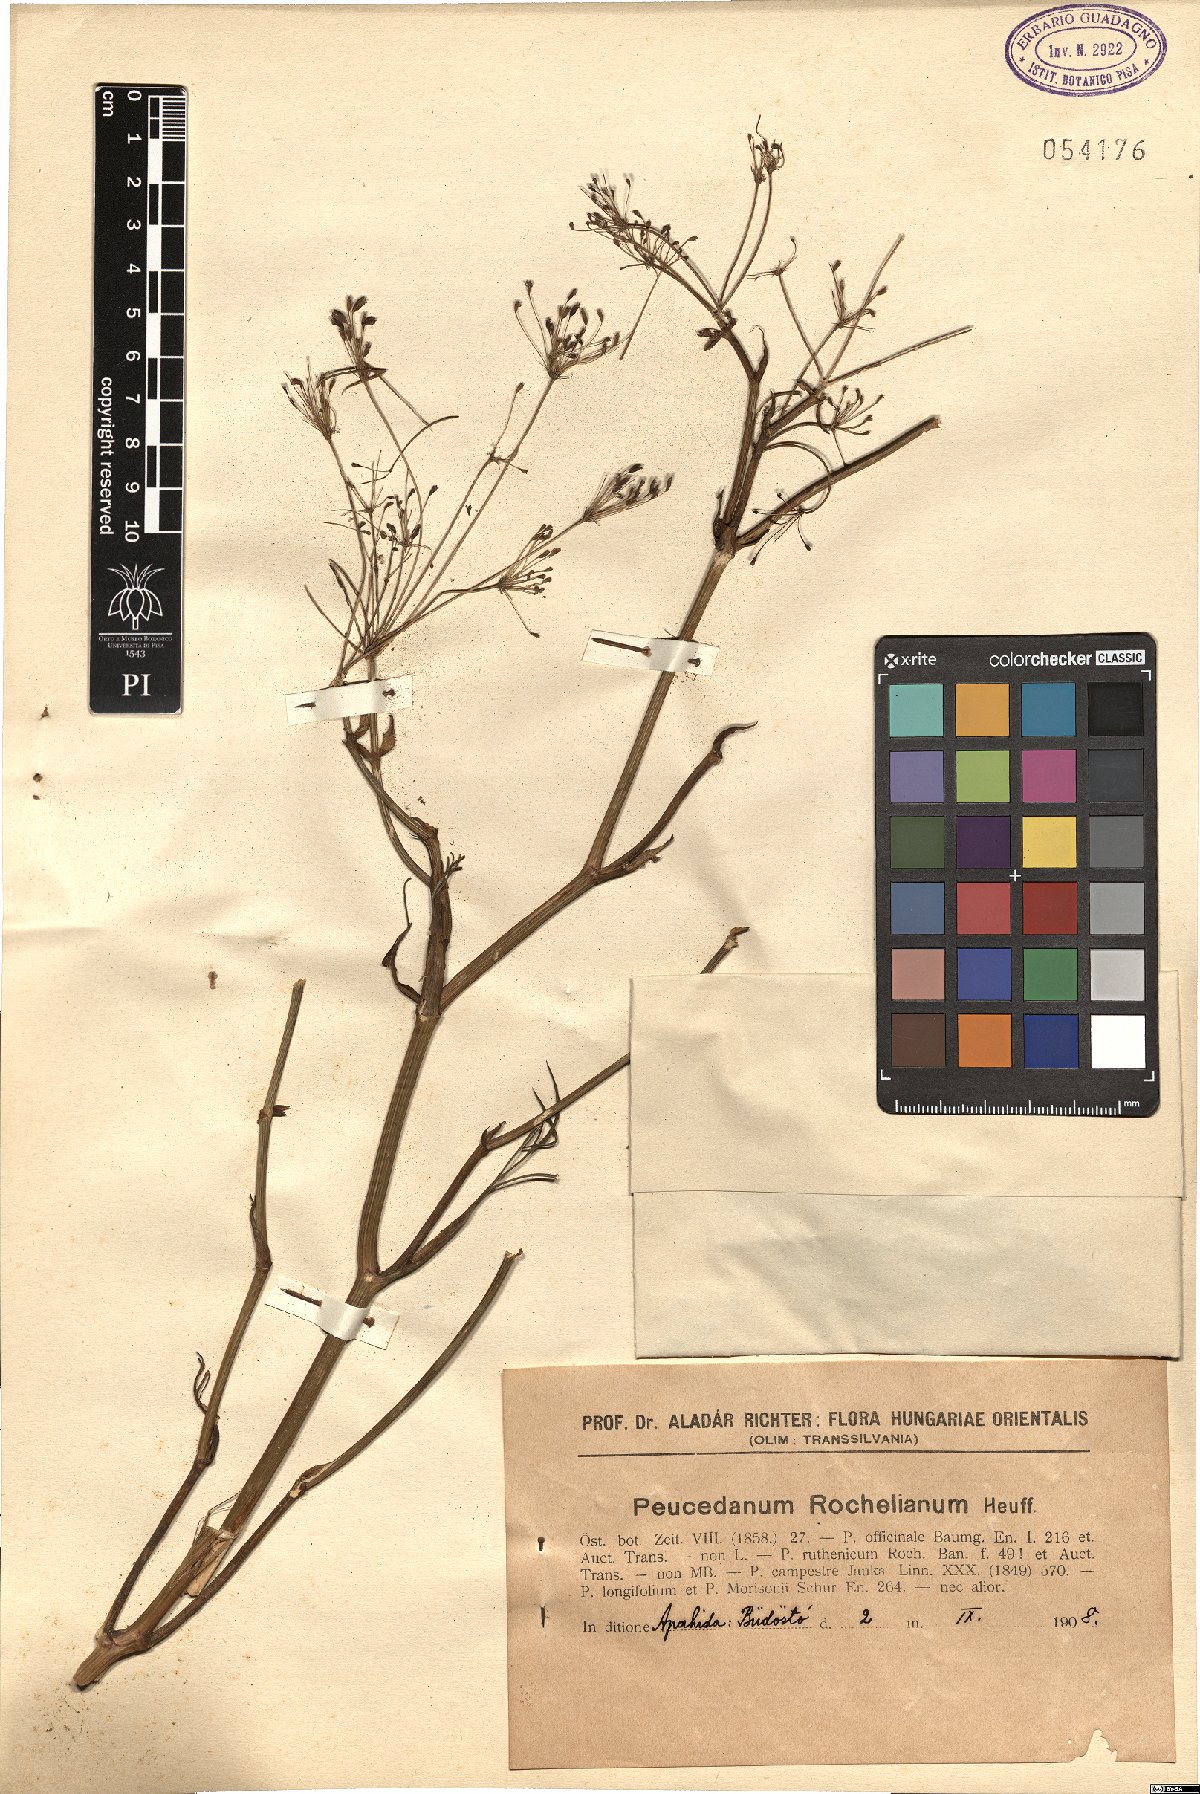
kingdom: Plantae
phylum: Tracheophyta
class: Magnoliopsida
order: Apiales
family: Apiaceae
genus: Peucedanum
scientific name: Peucedanum rochelianum
